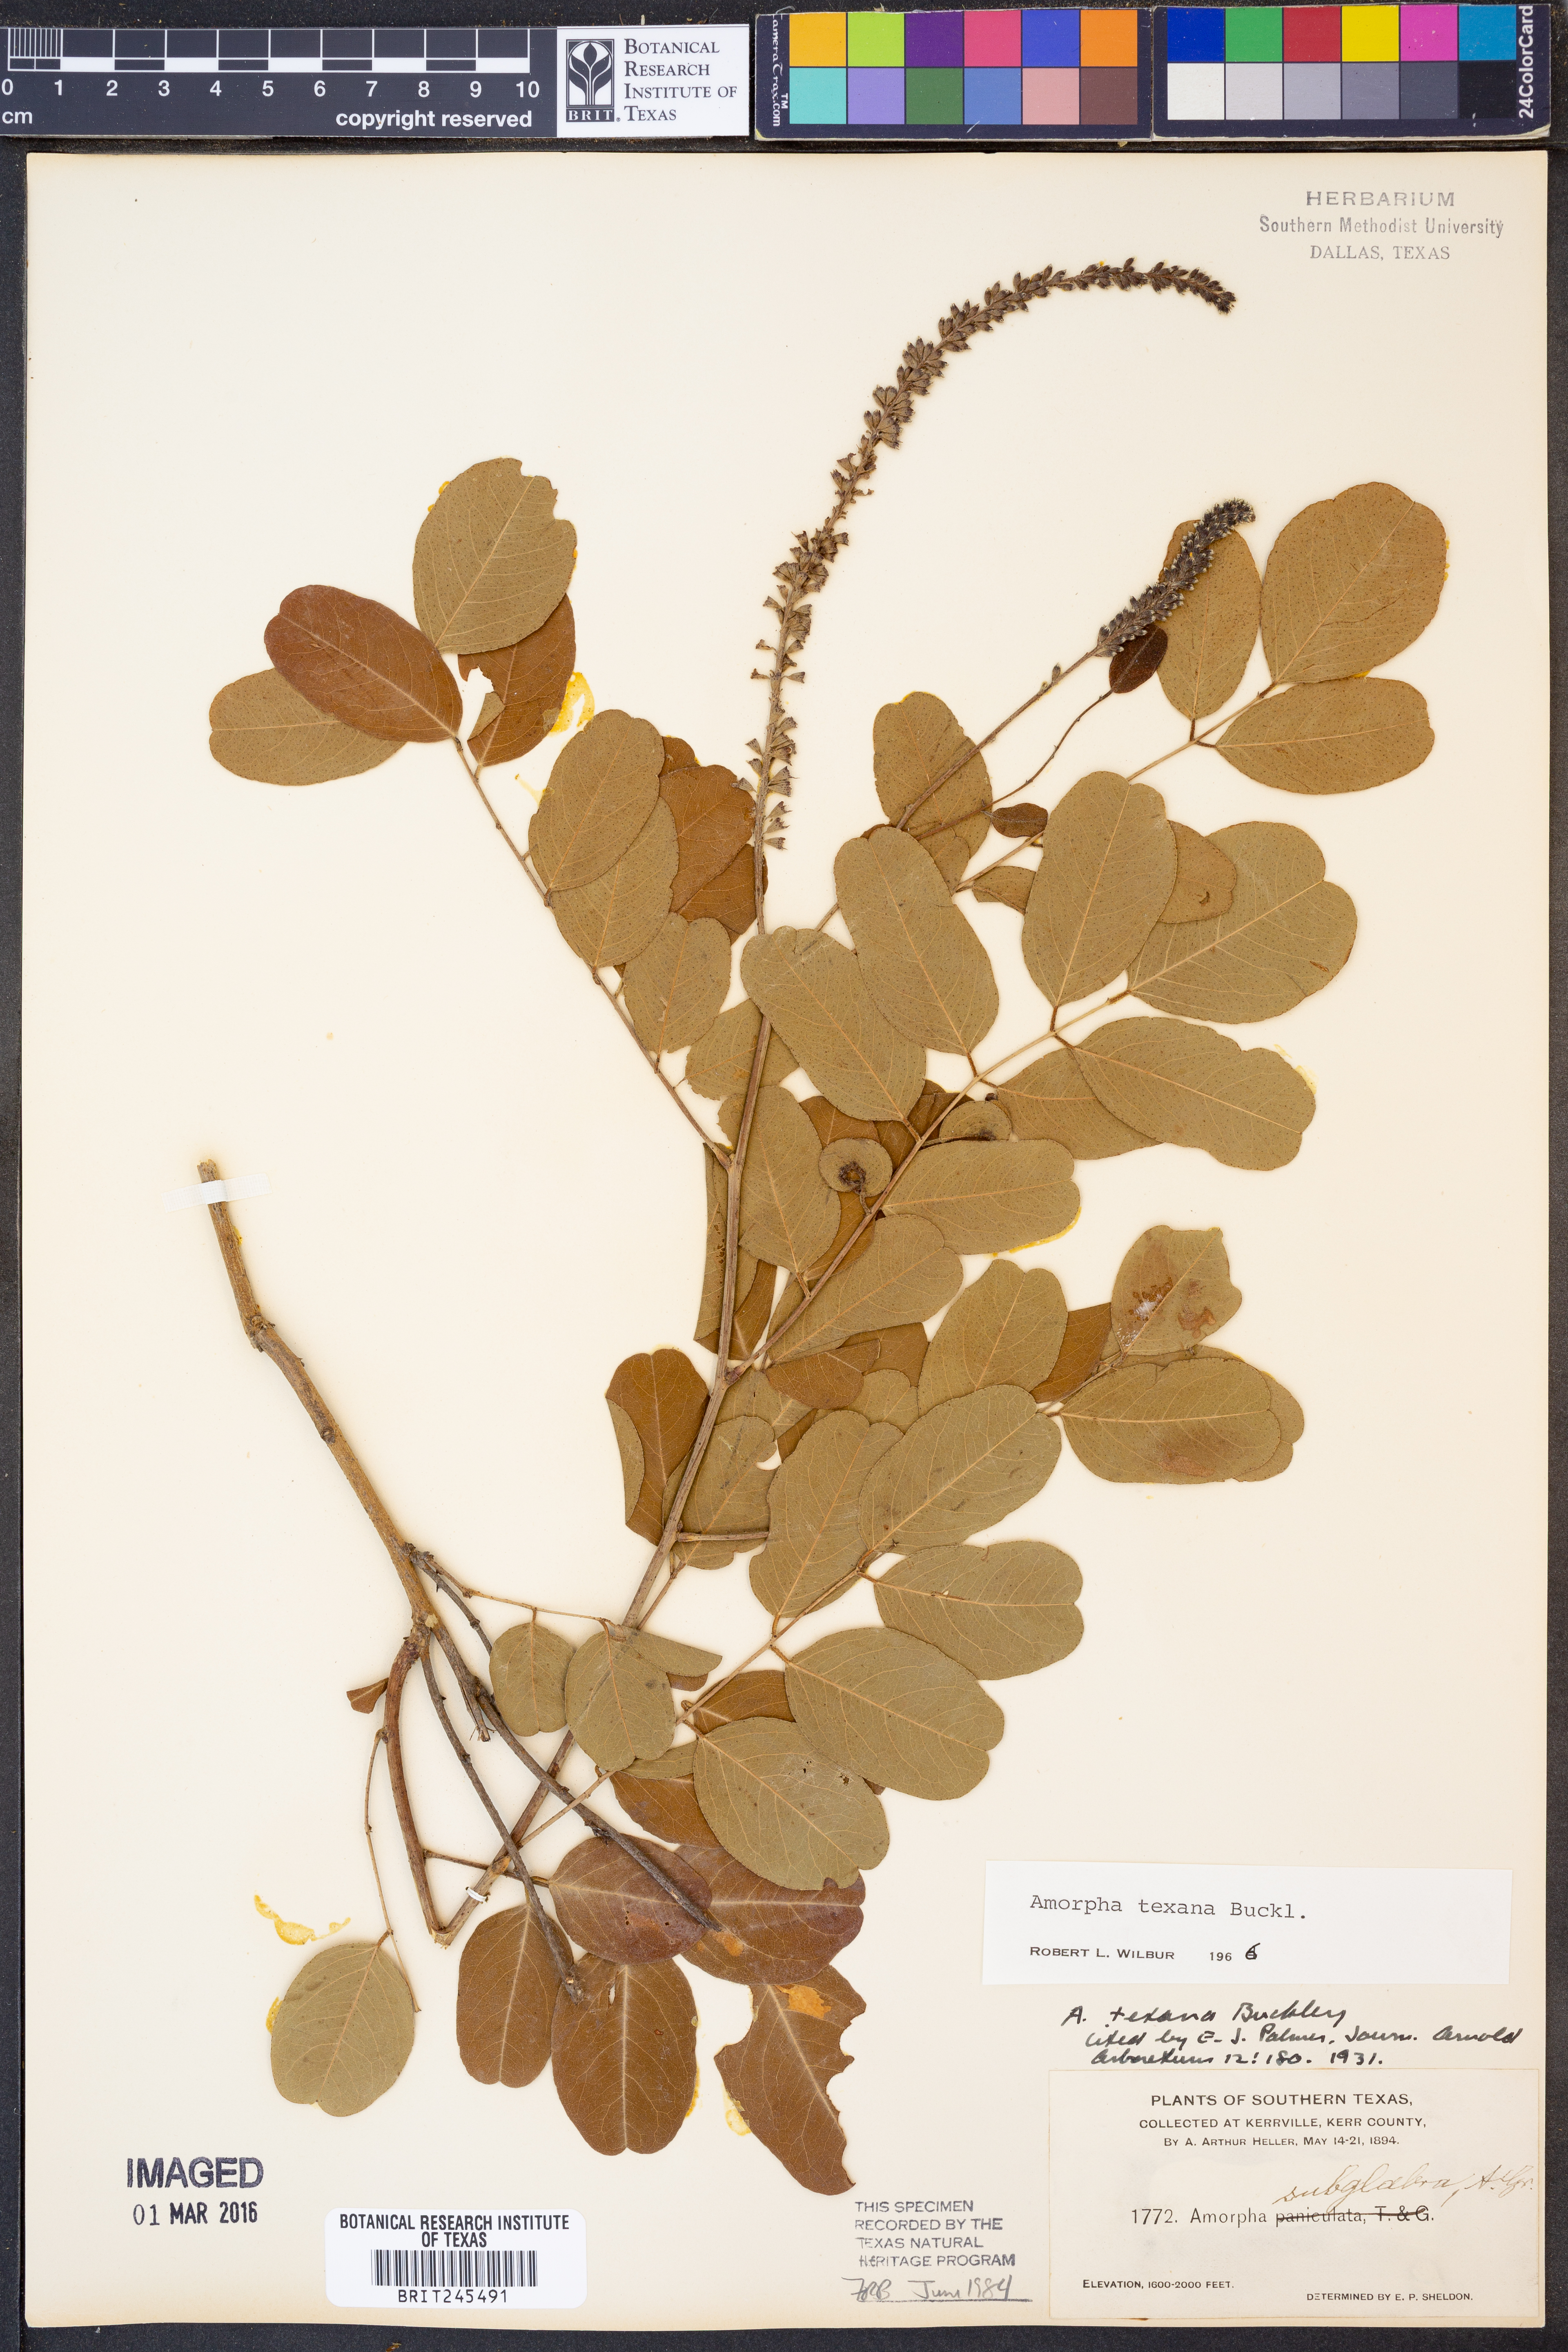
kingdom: Plantae
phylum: Tracheophyta
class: Magnoliopsida
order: Fabales
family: Fabaceae
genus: Amorpha
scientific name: Amorpha roemeriana
